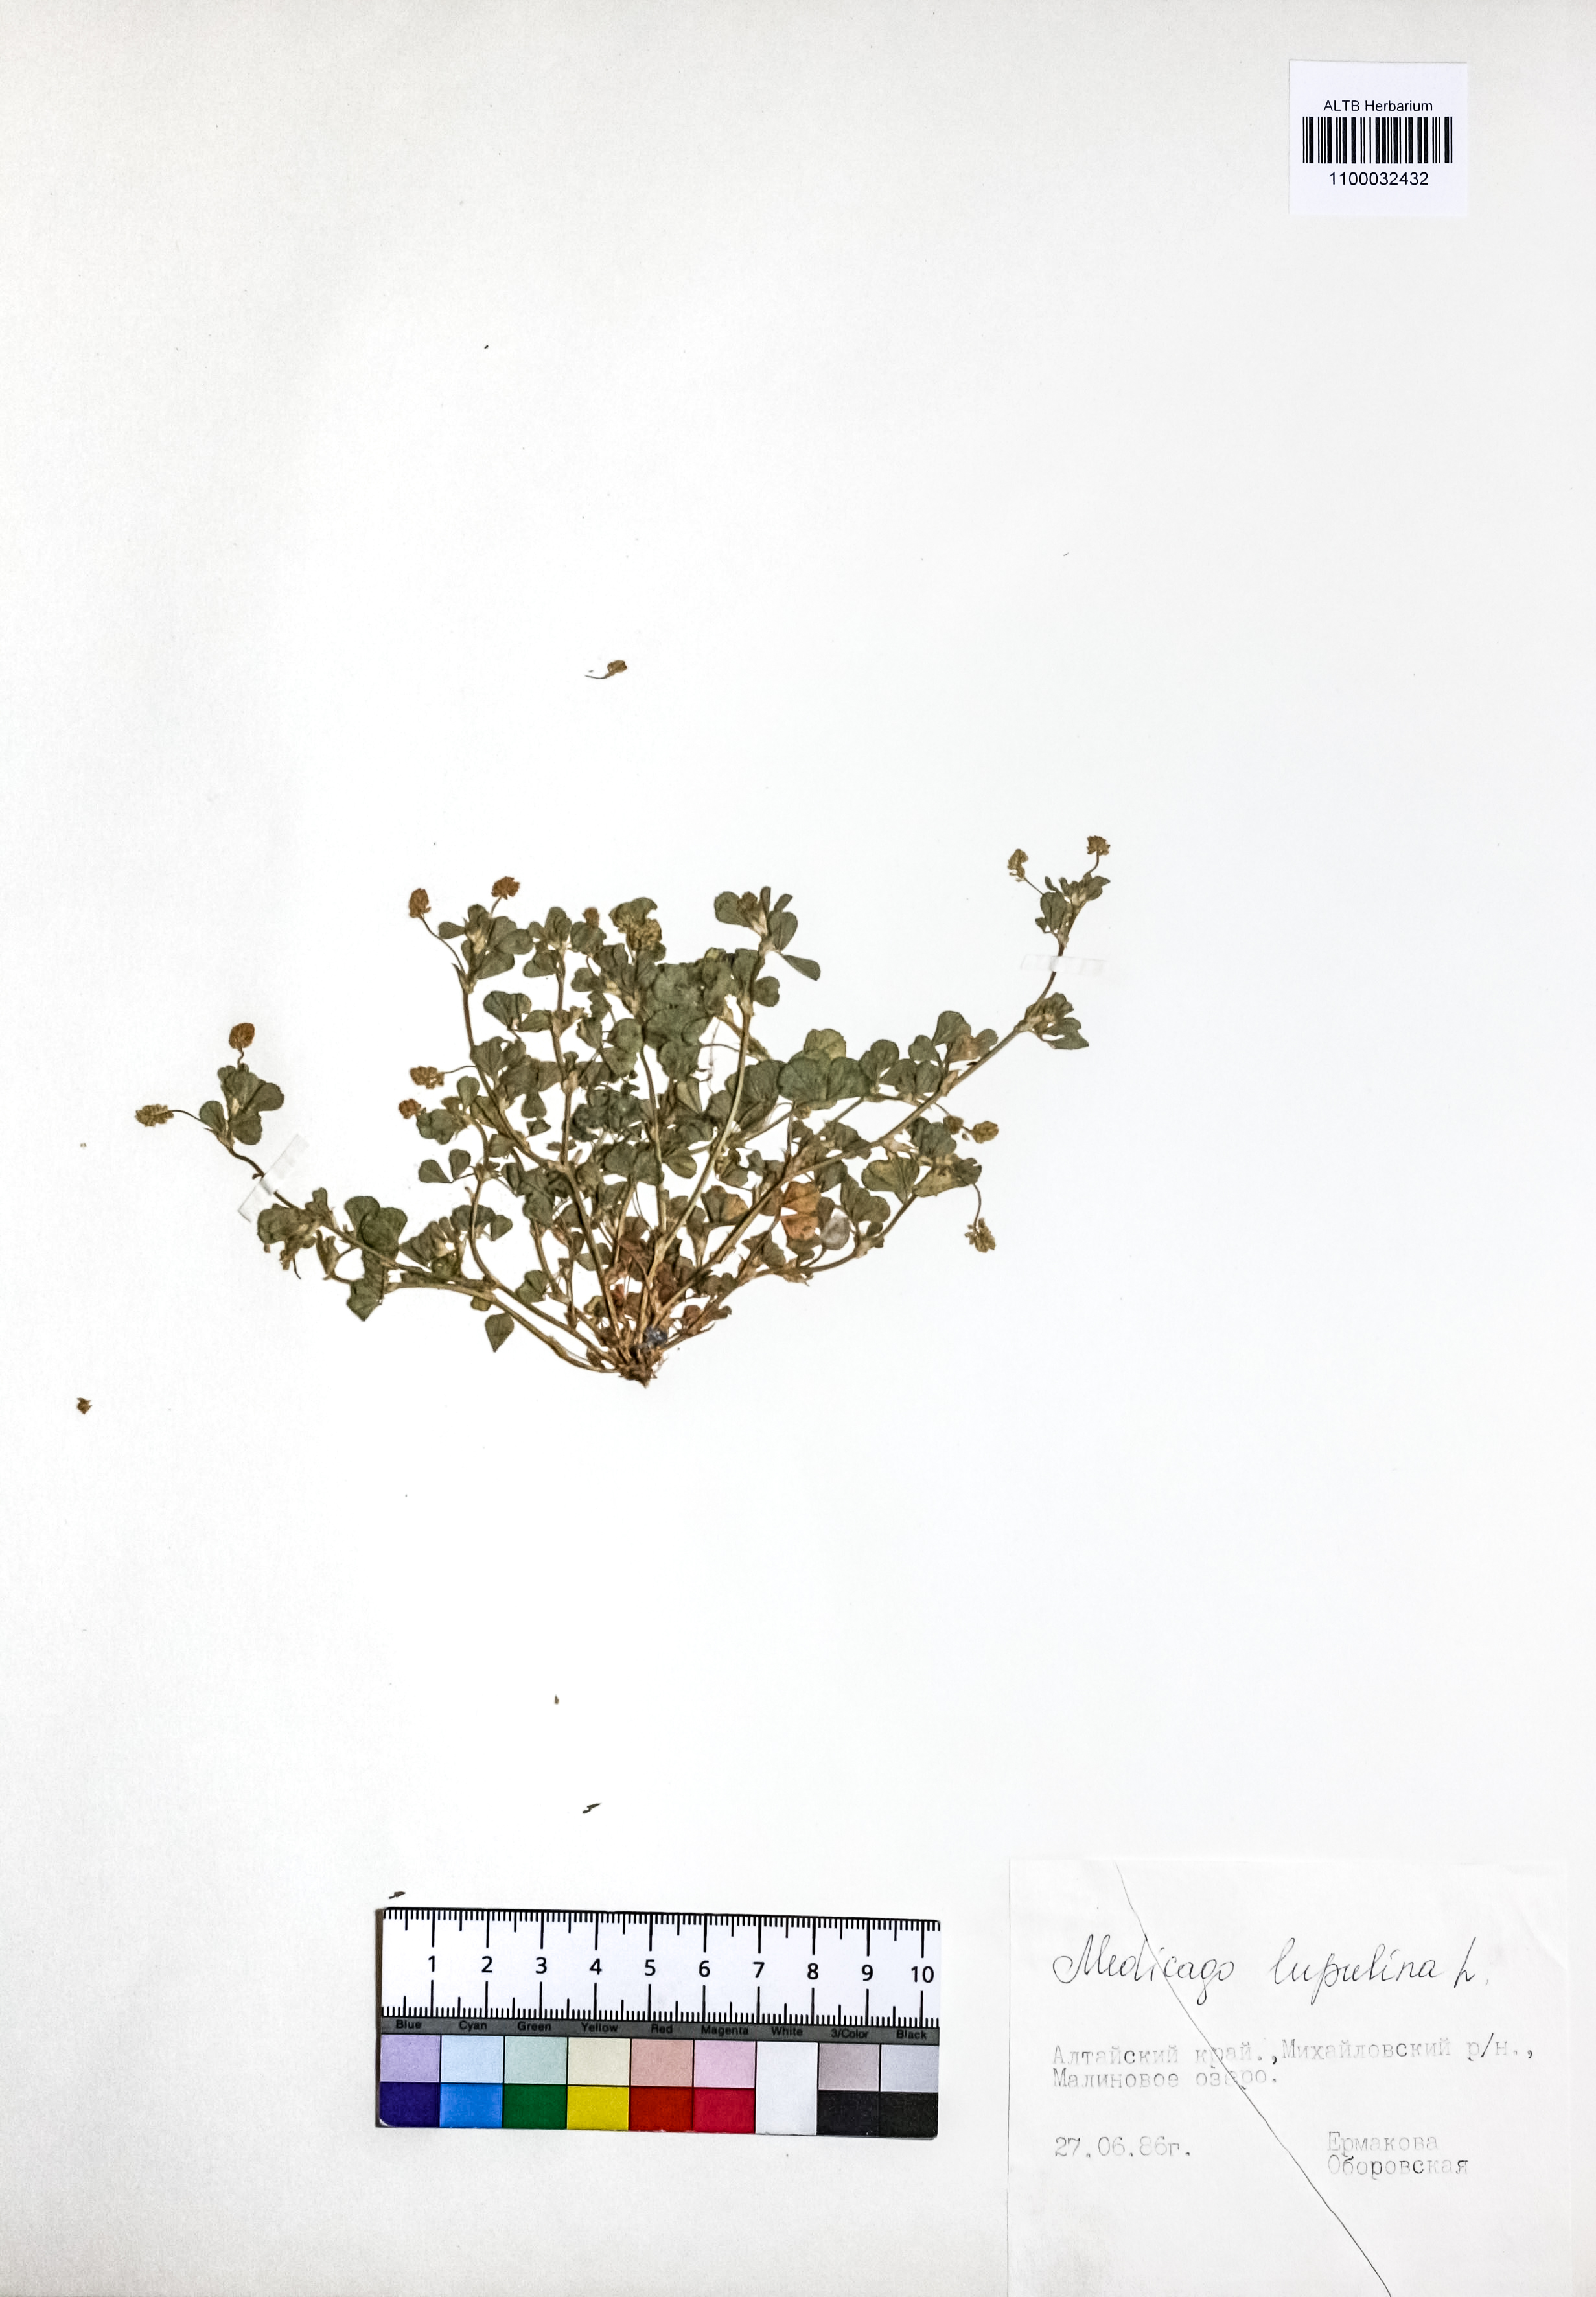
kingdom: Plantae
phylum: Tracheophyta
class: Magnoliopsida
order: Fabales
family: Fabaceae
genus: Medicago
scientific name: Medicago lupulina
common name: Black medick
